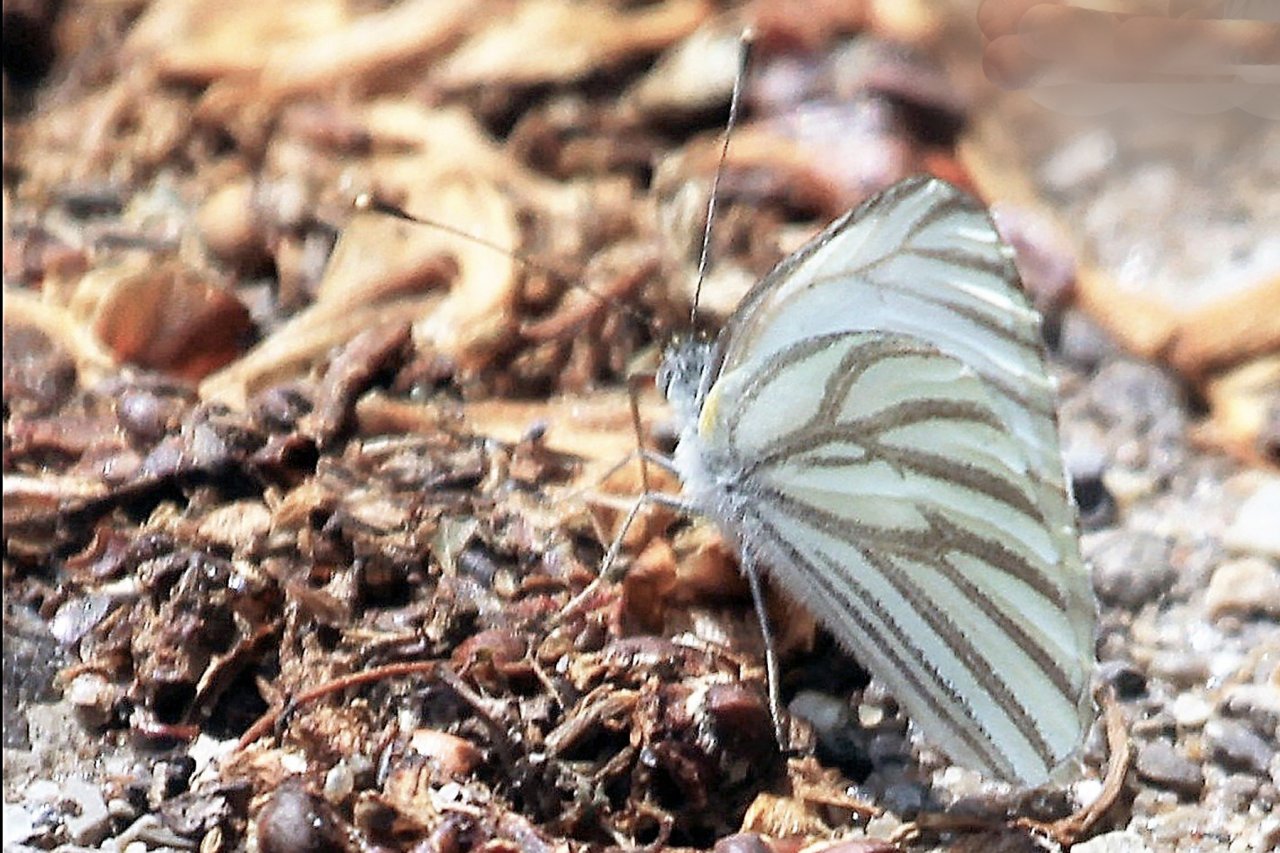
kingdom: Animalia
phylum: Arthropoda
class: Insecta
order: Lepidoptera
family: Pieridae
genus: Pieris
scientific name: Pieris oleracea
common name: Mustard White
